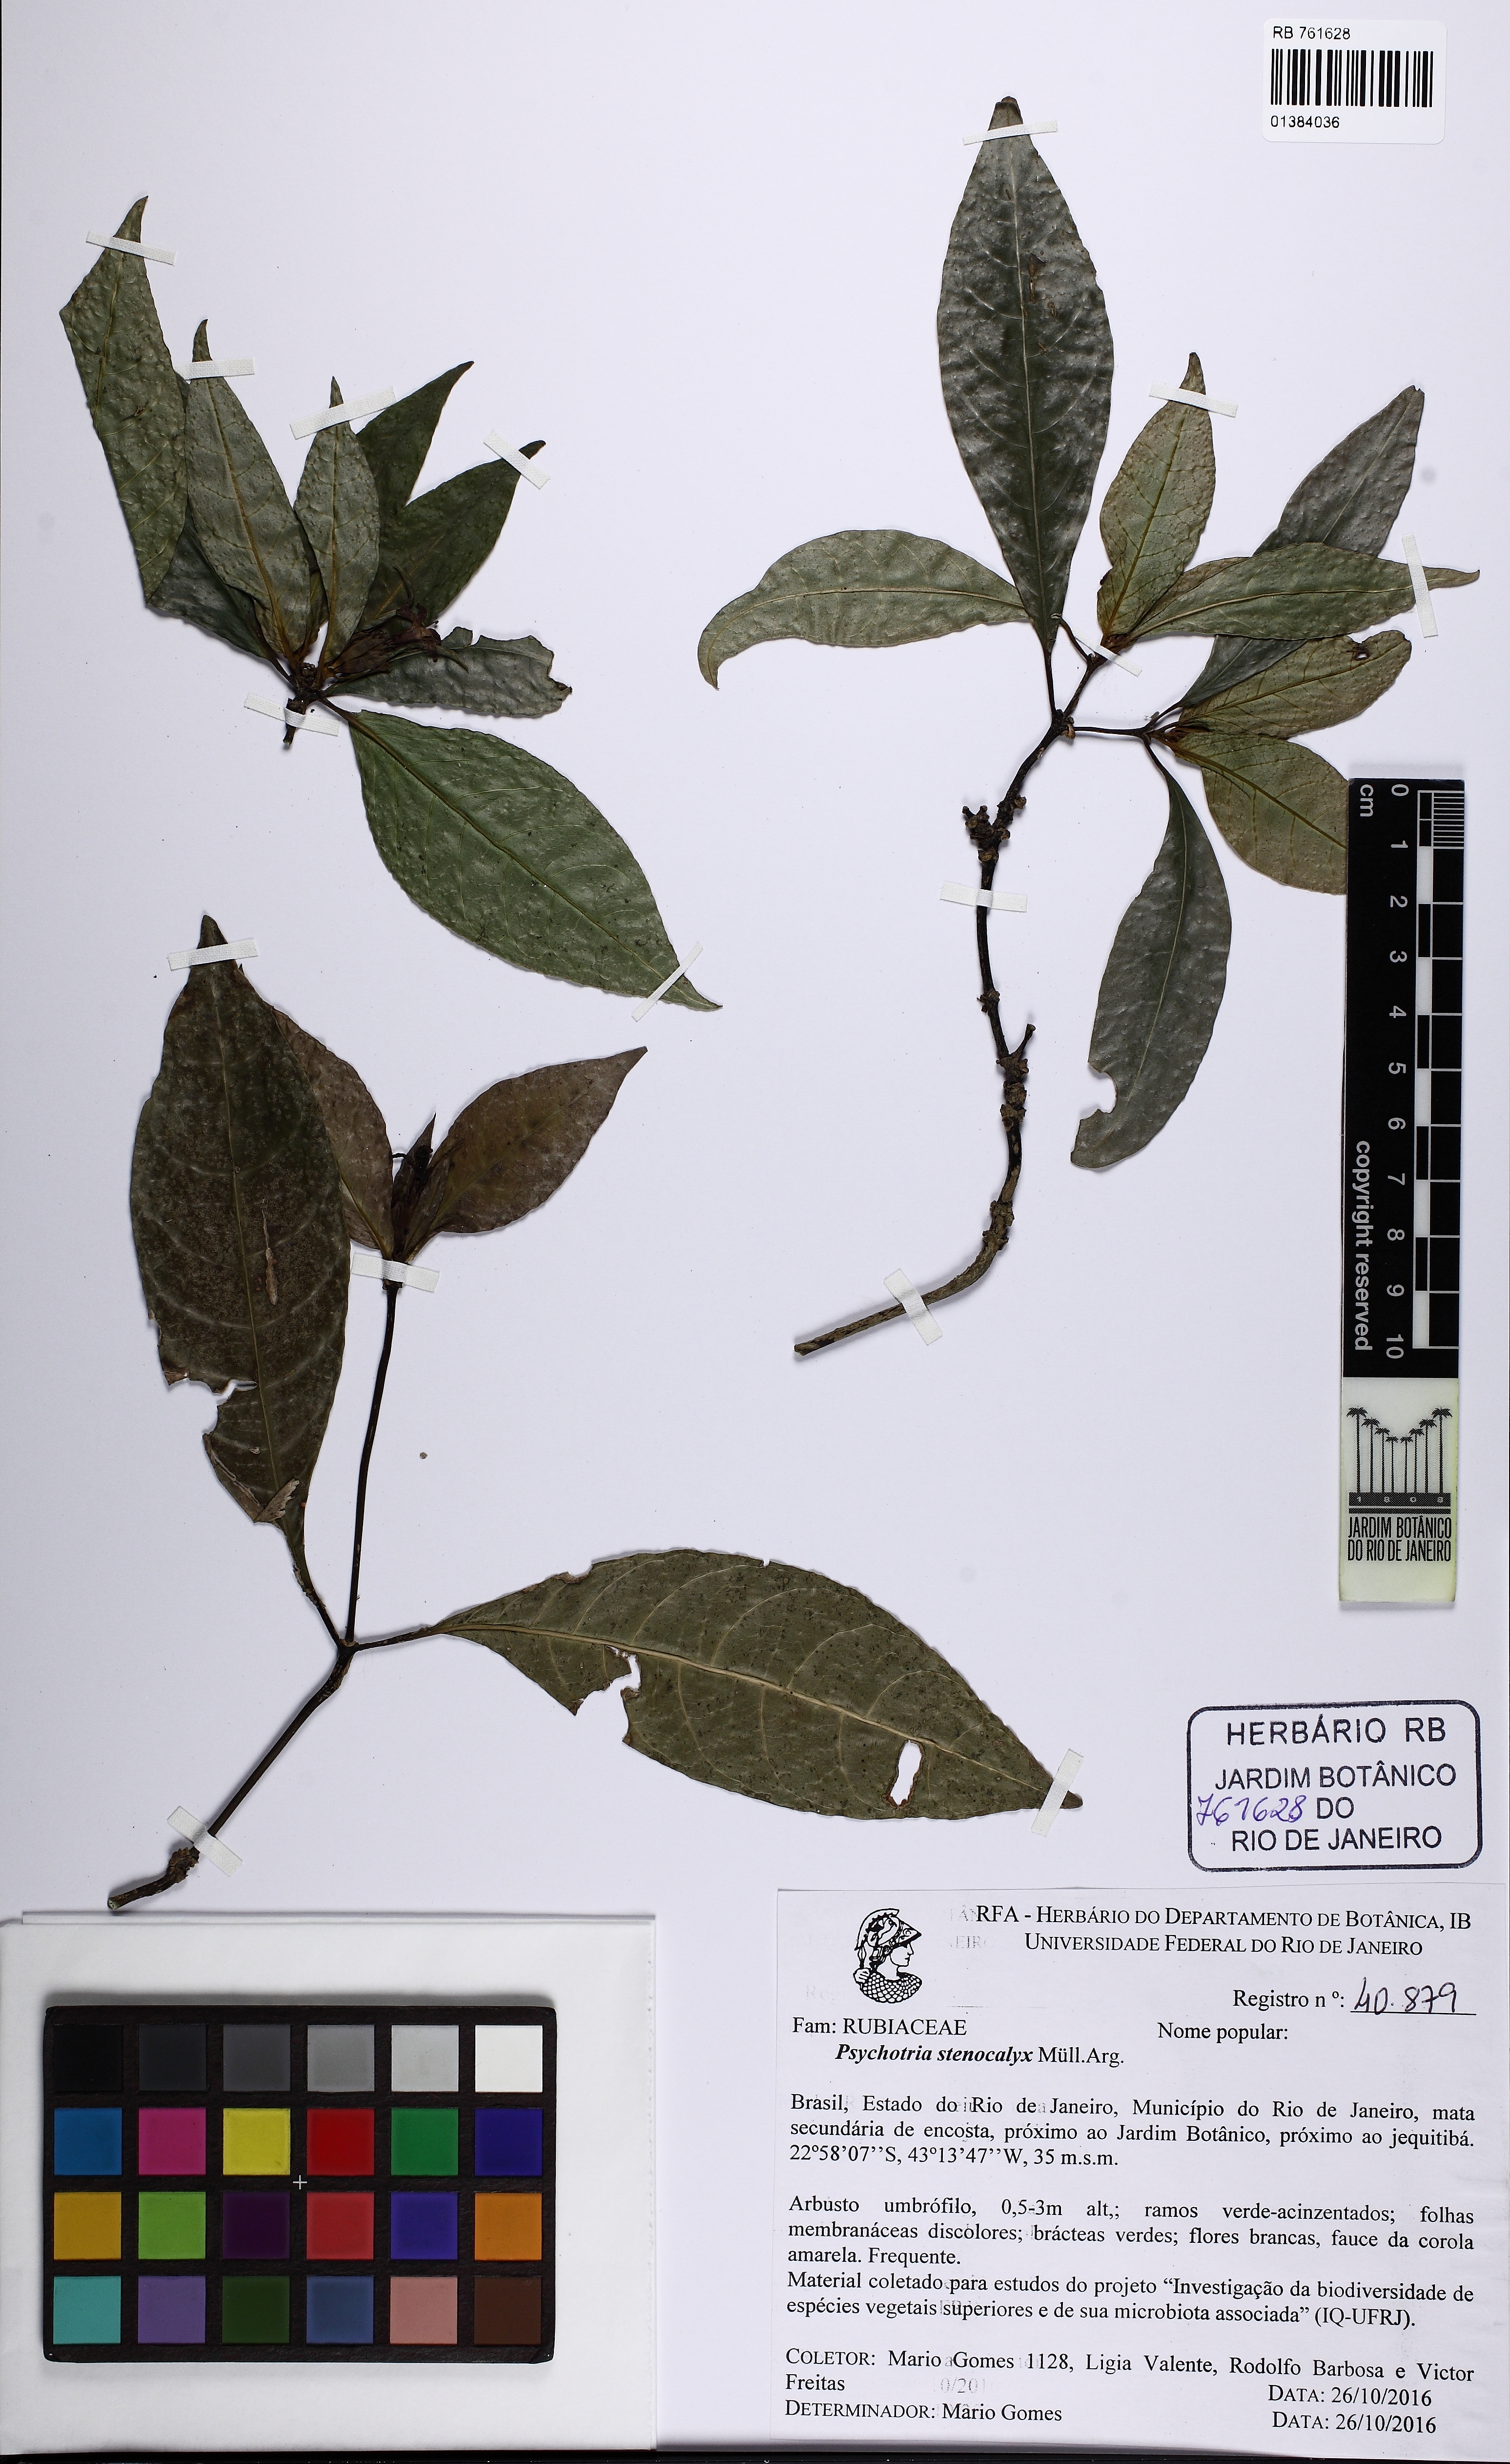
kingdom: Plantae
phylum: Tracheophyta
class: Magnoliopsida
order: Gentianales
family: Rubiaceae
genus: Psychotria
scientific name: Psychotria stenocalyx
